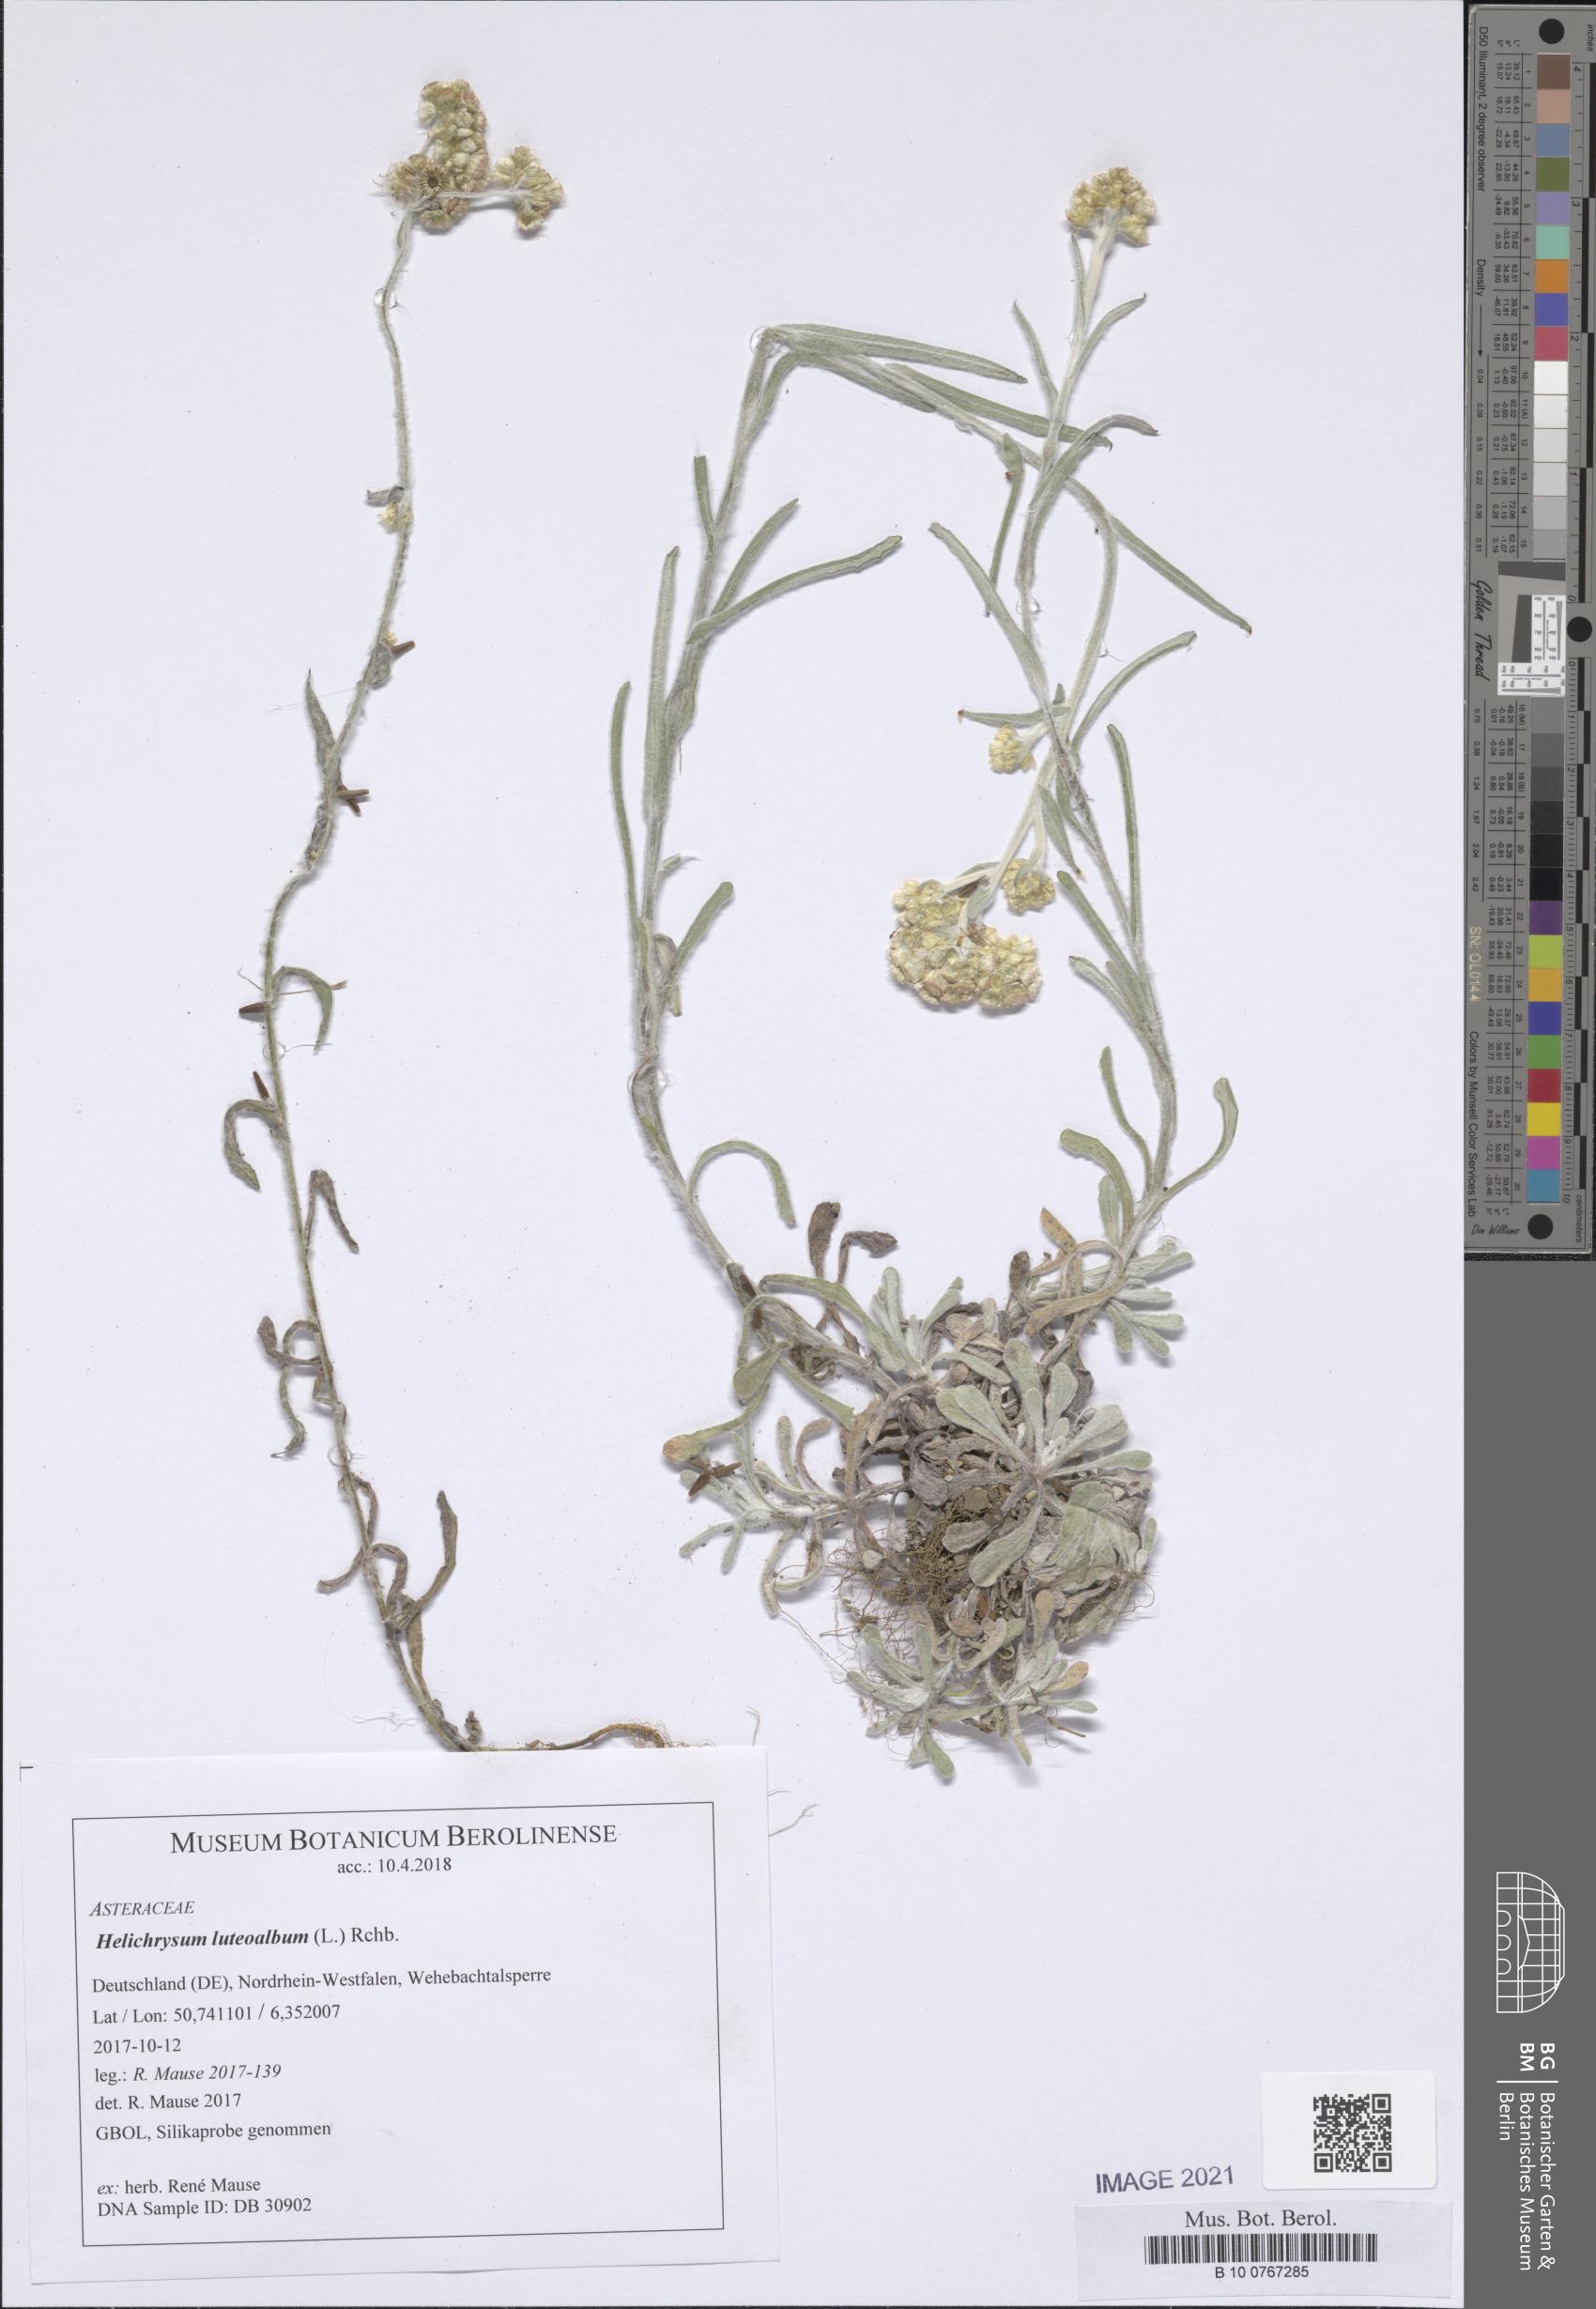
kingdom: Plantae
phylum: Tracheophyta
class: Magnoliopsida
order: Asterales
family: Asteraceae
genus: Helichrysum
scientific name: Helichrysum luteoalbum
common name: Daisy
